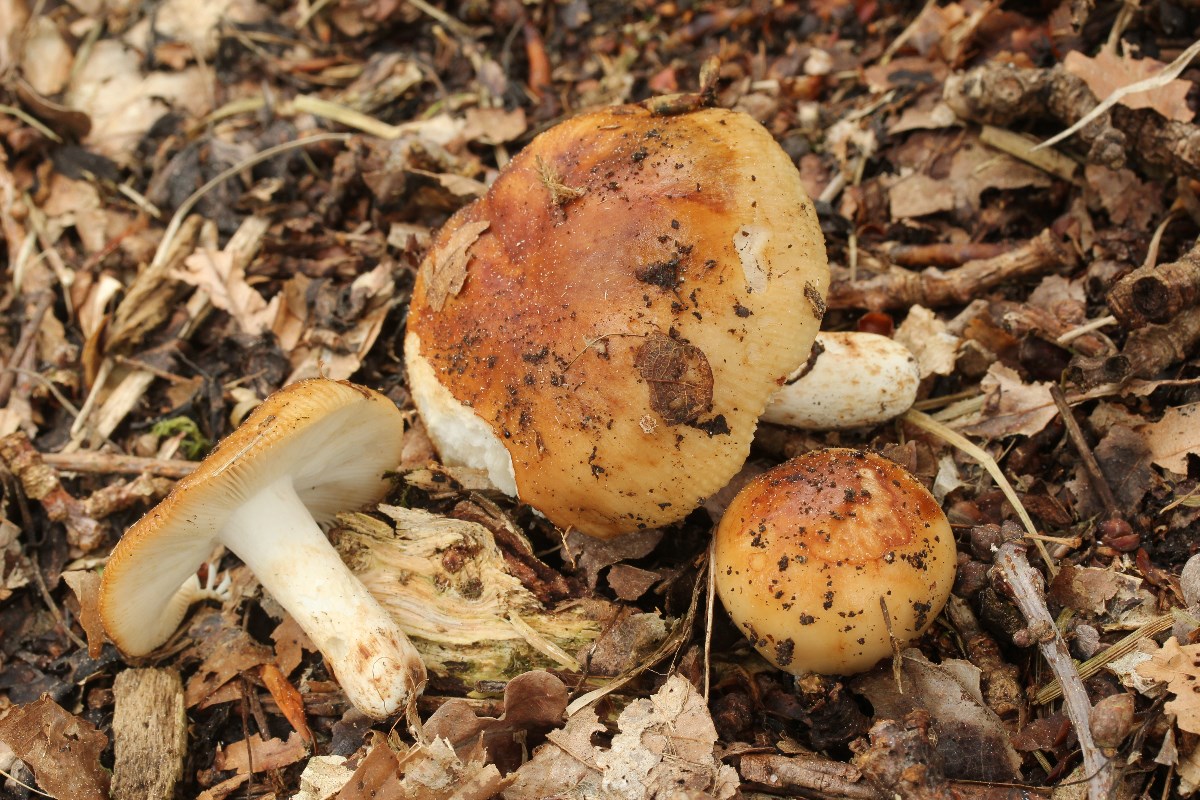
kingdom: Fungi
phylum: Basidiomycota
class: Agaricomycetes
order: Russulales
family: Russulaceae
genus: Russula
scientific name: Russula grata
